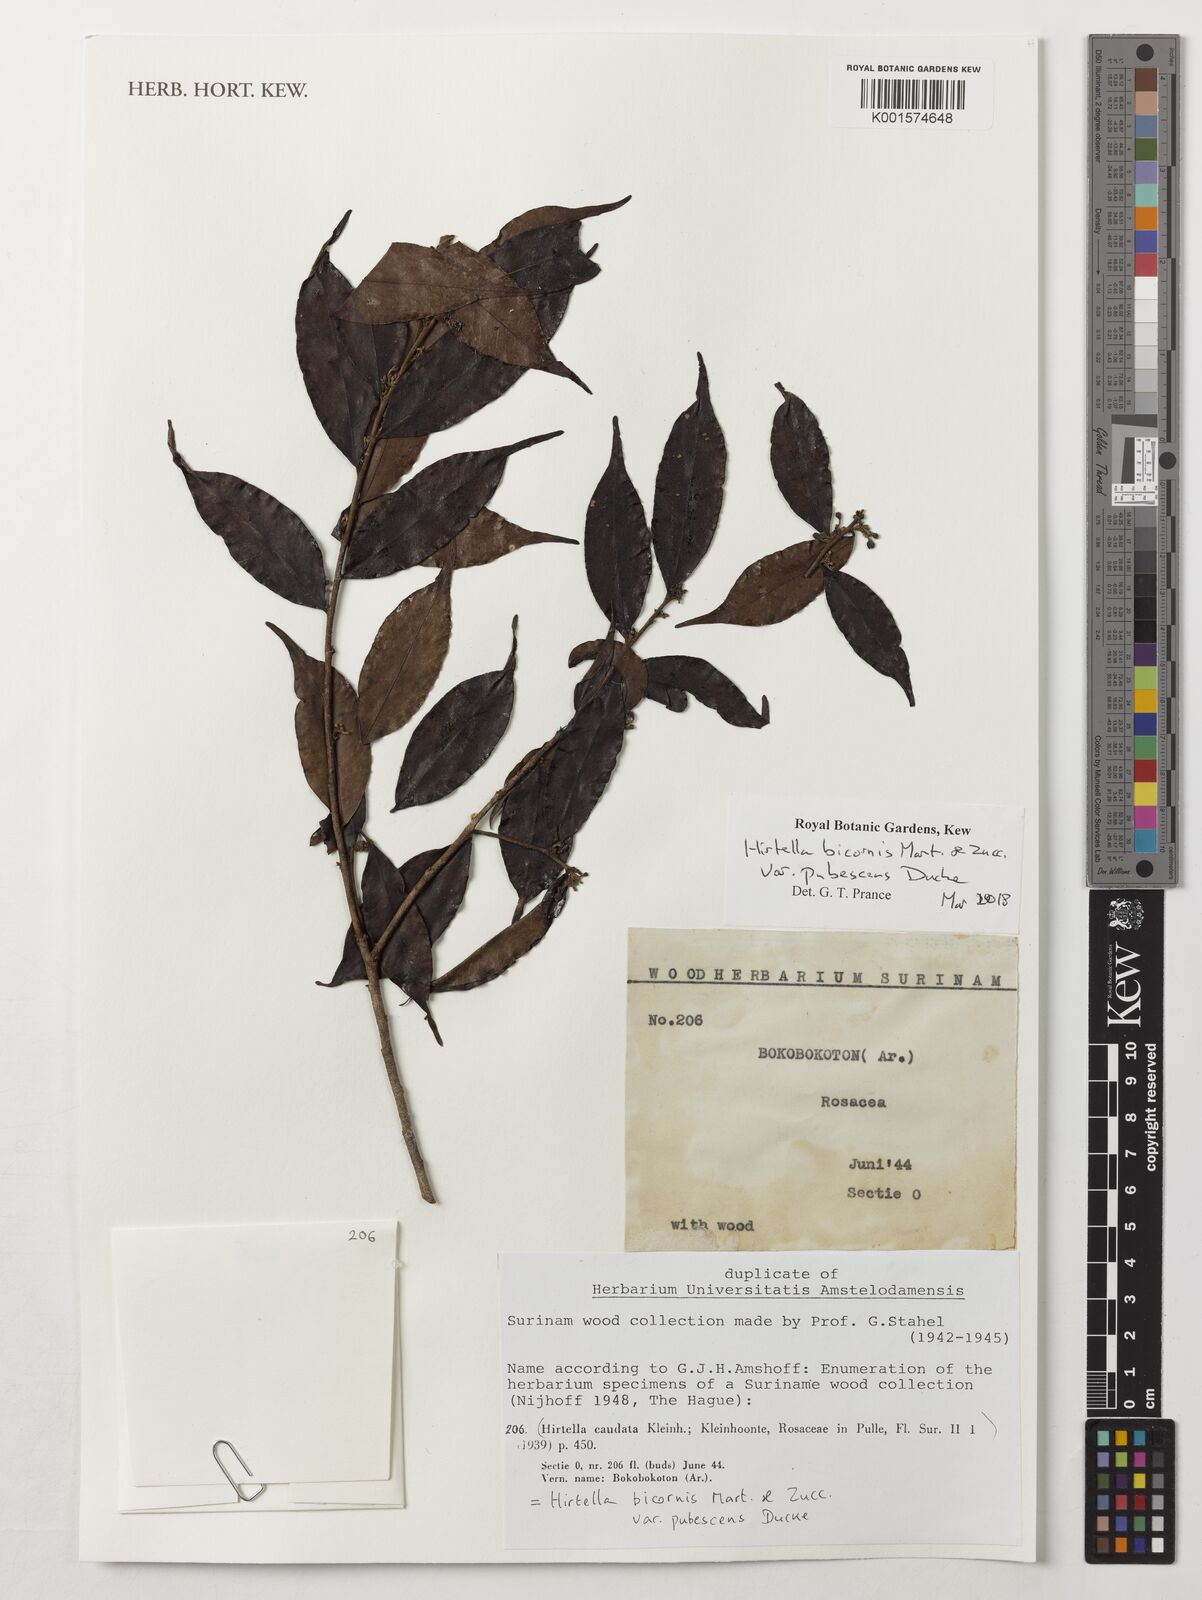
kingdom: Plantae
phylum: Tracheophyta
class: Magnoliopsida
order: Malpighiales
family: Chrysobalanaceae
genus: Hirtella
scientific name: Hirtella bicornis
